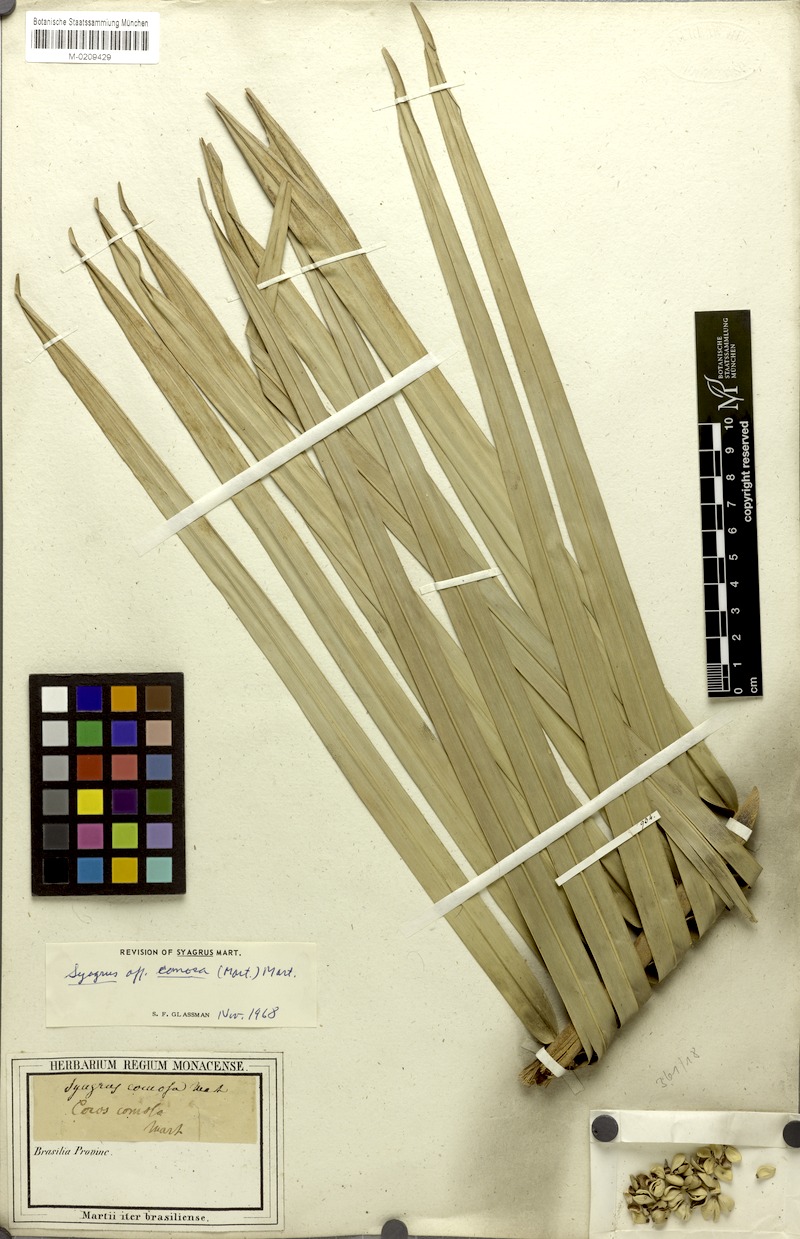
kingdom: Plantae
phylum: Tracheophyta
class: Liliopsida
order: Arecales
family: Arecaceae
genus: Syagrus
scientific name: Syagrus comosa
